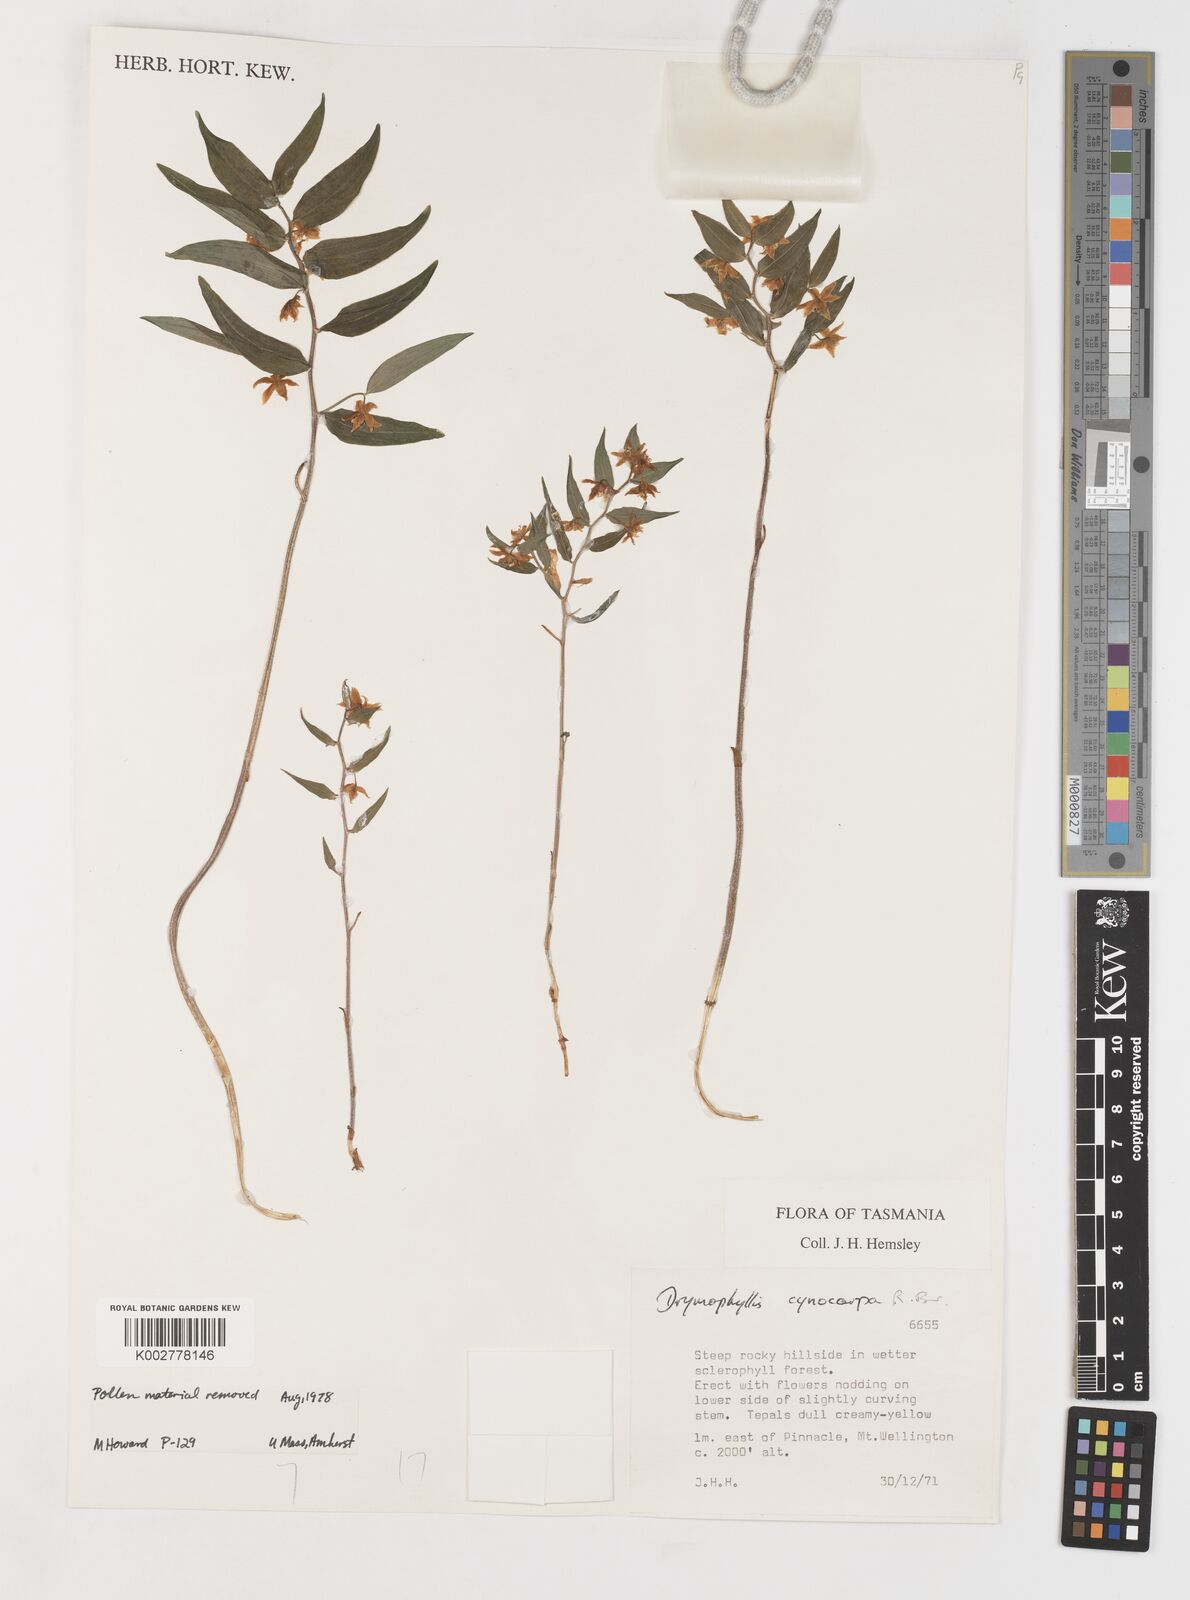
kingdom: Plantae
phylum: Tracheophyta
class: Liliopsida
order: Liliales
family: Alstroemeriaceae
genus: Drymophila
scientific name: Drymophila cyanocarpa
